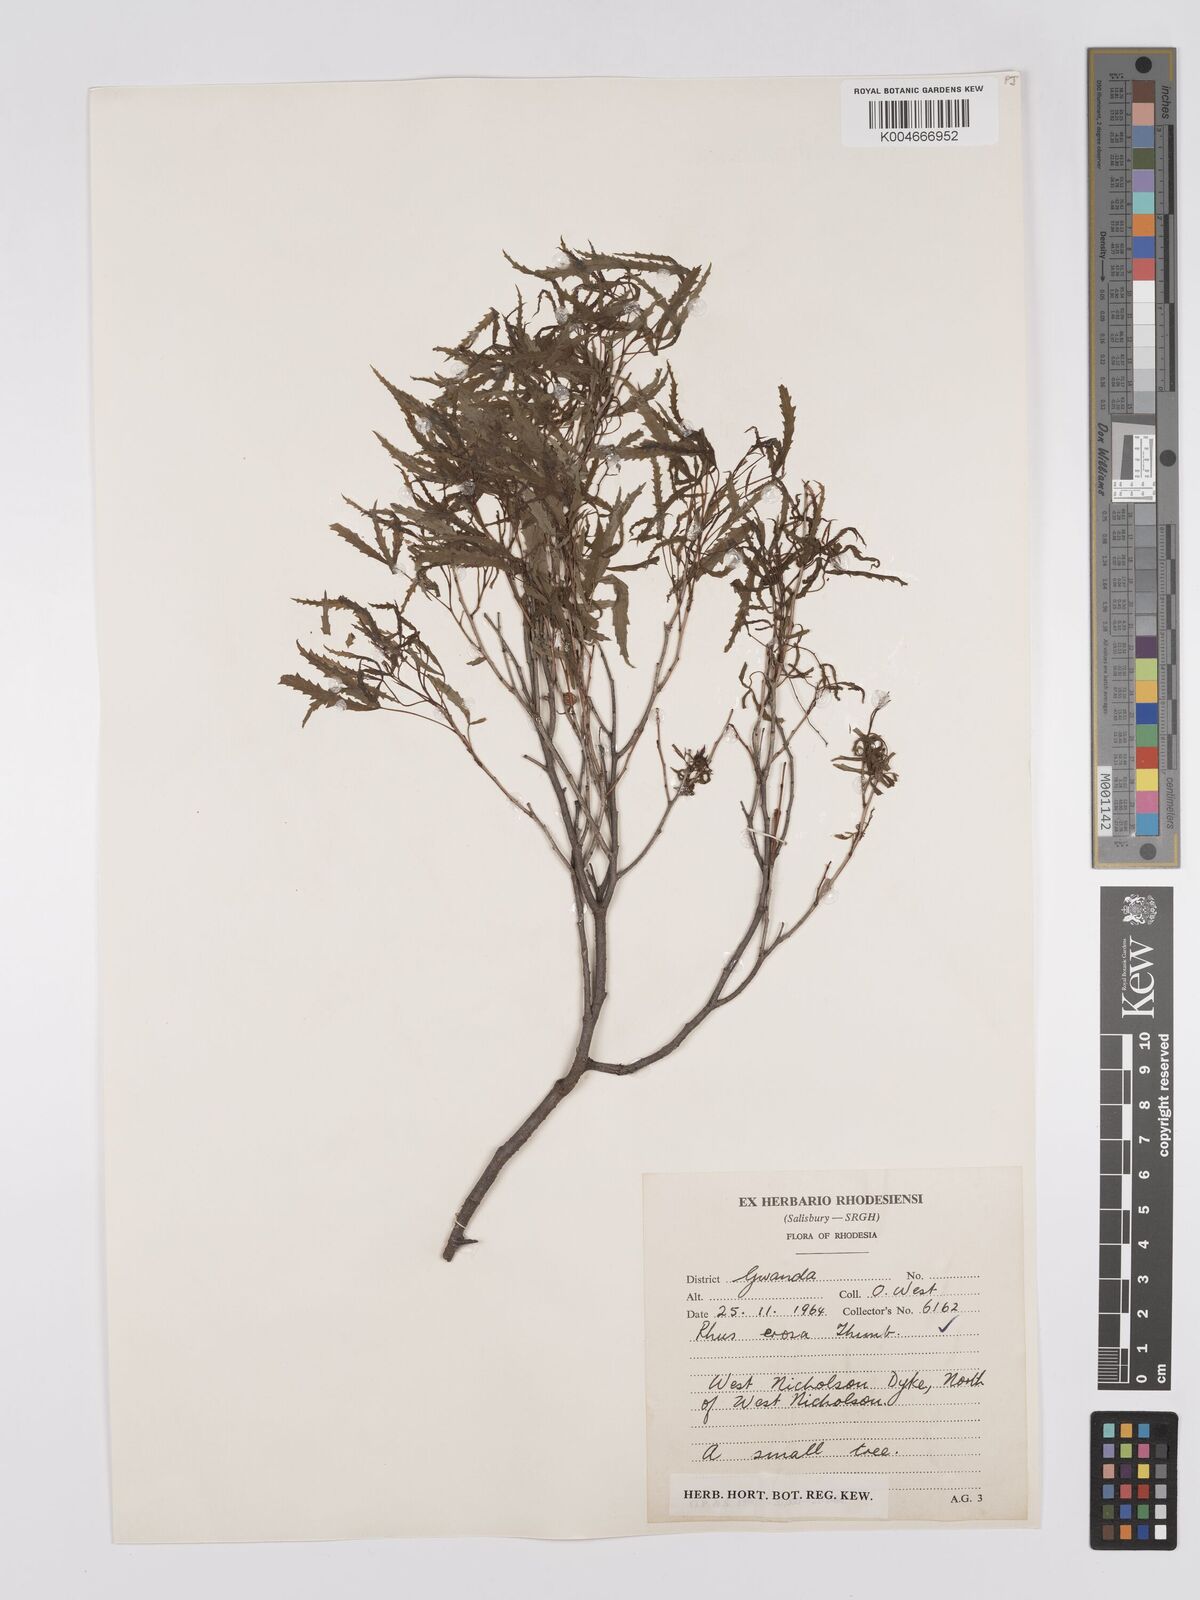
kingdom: Plantae
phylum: Tracheophyta
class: Magnoliopsida
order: Sapindales
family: Anacardiaceae
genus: Rhus
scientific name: Rhus
